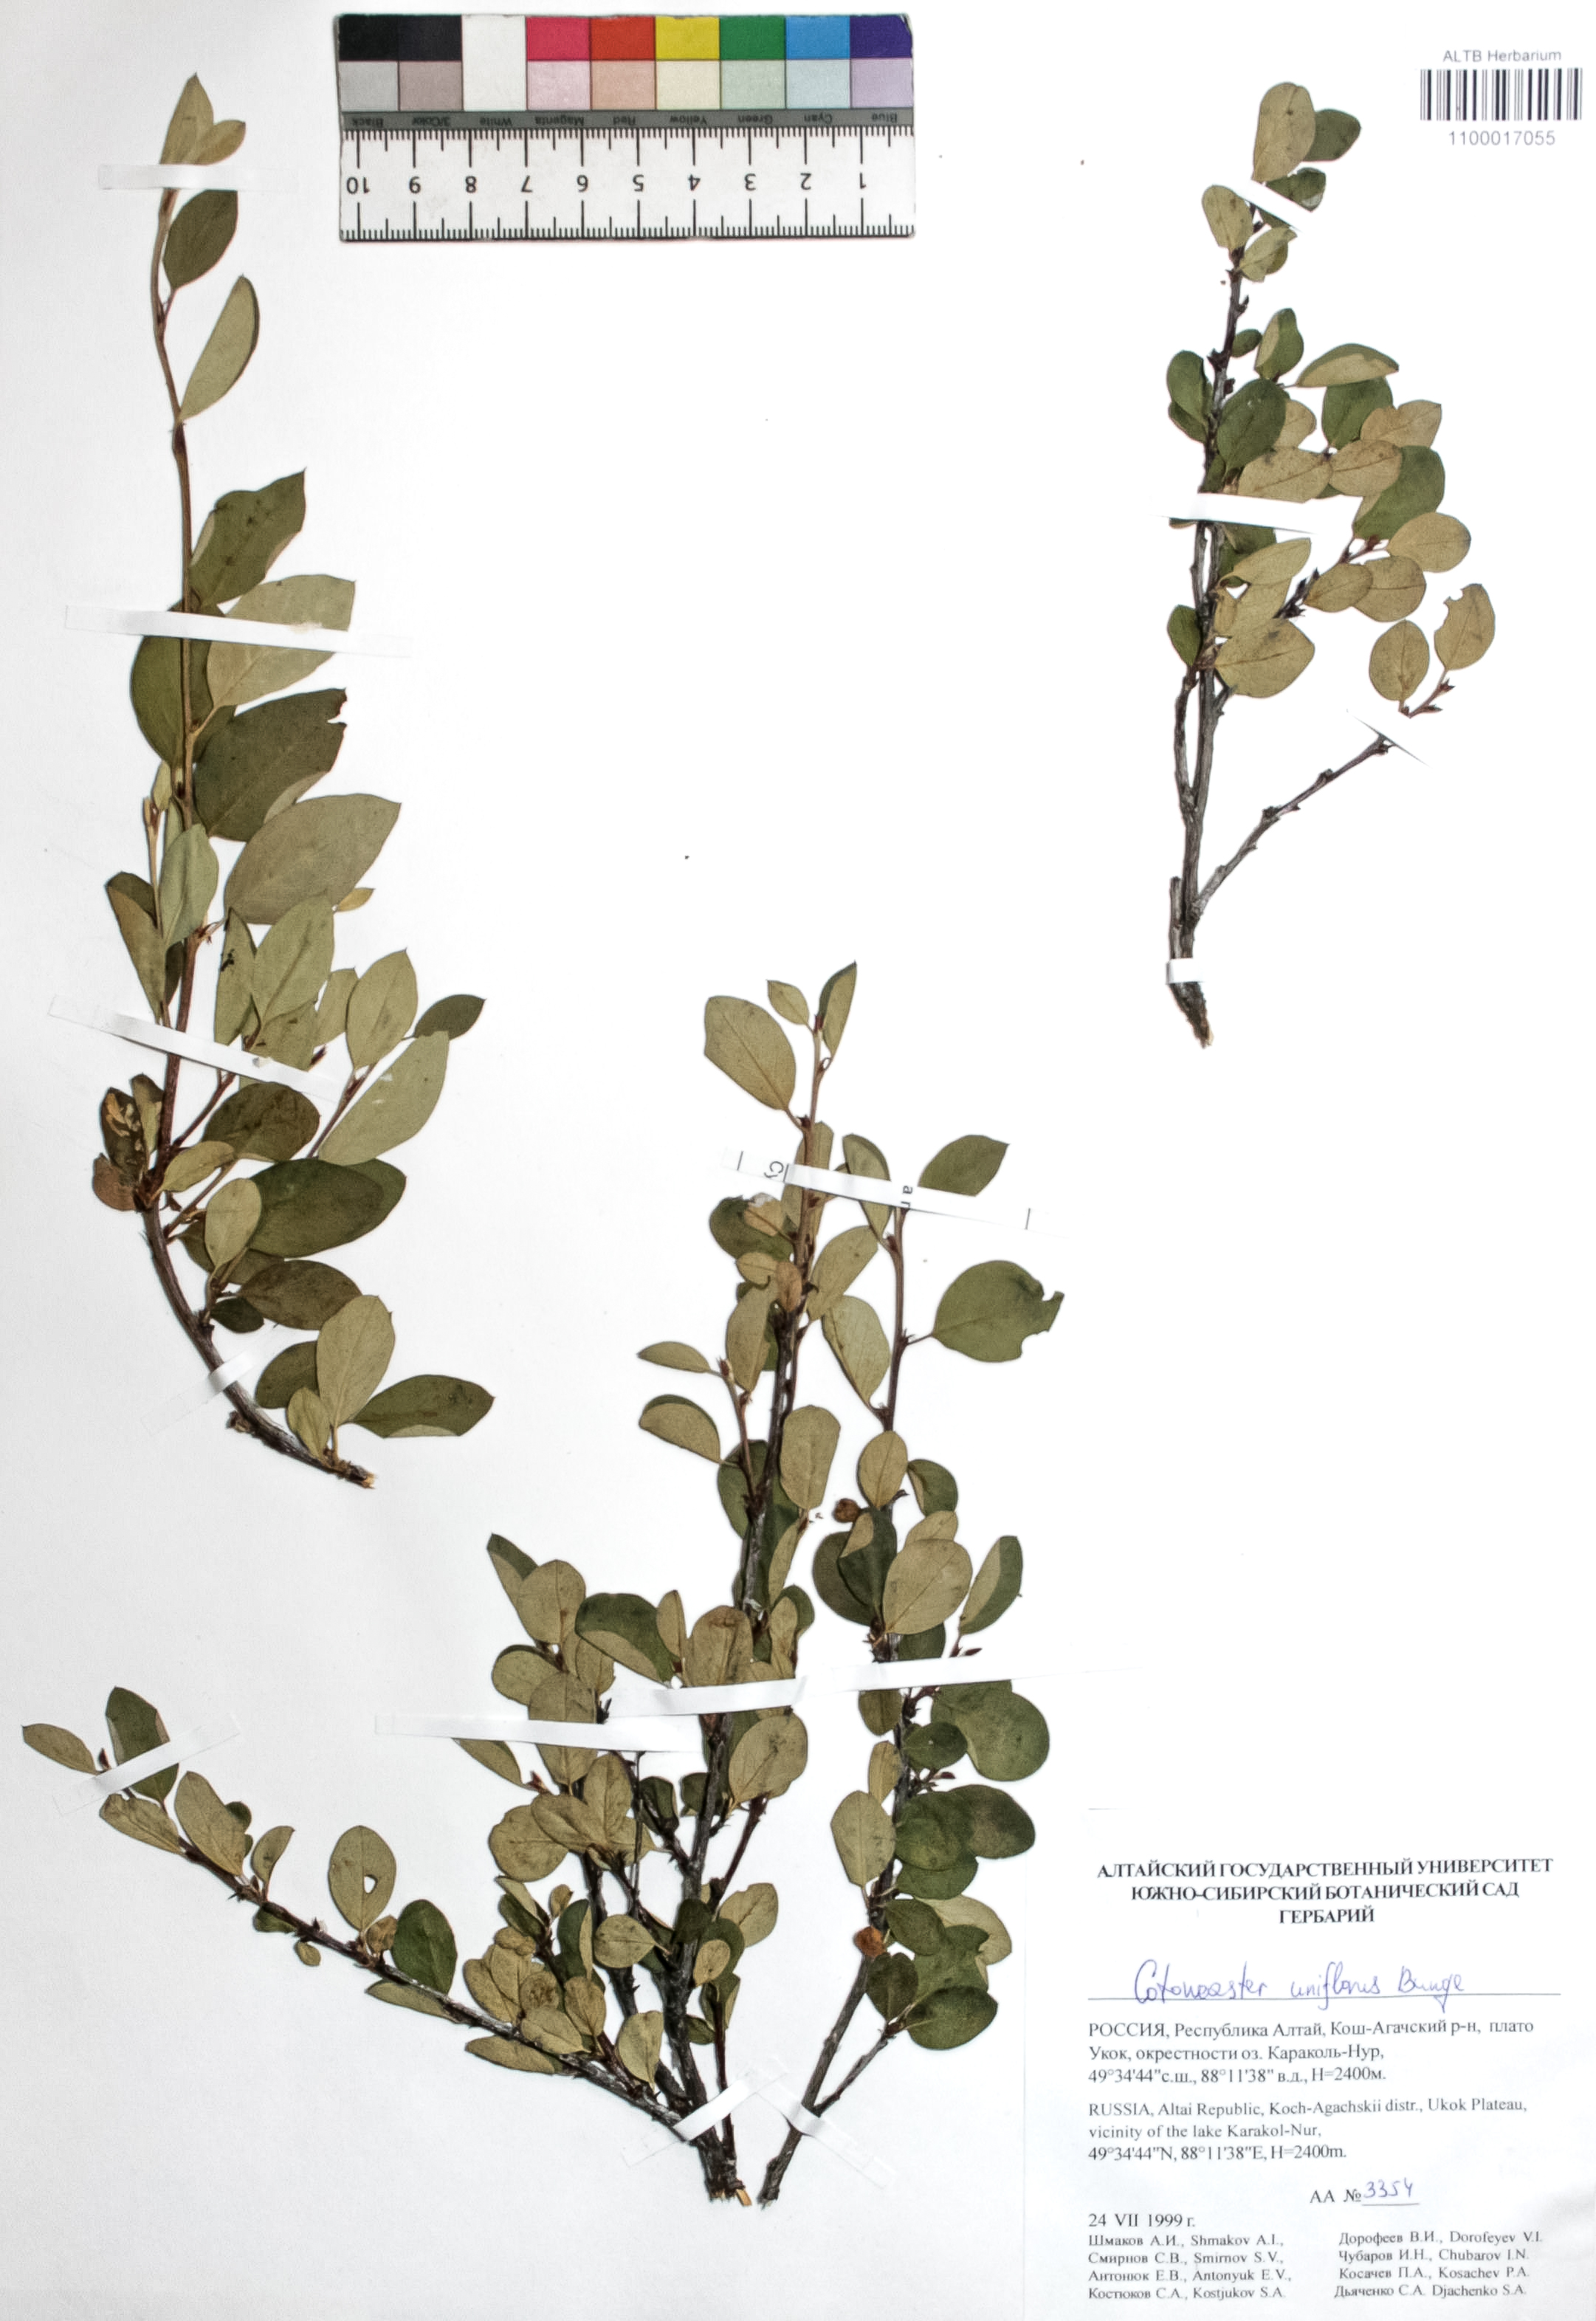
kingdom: Plantae
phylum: Tracheophyta
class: Magnoliopsida
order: Rosales
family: Rosaceae
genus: Cotoneaster
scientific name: Cotoneaster uniflorus
